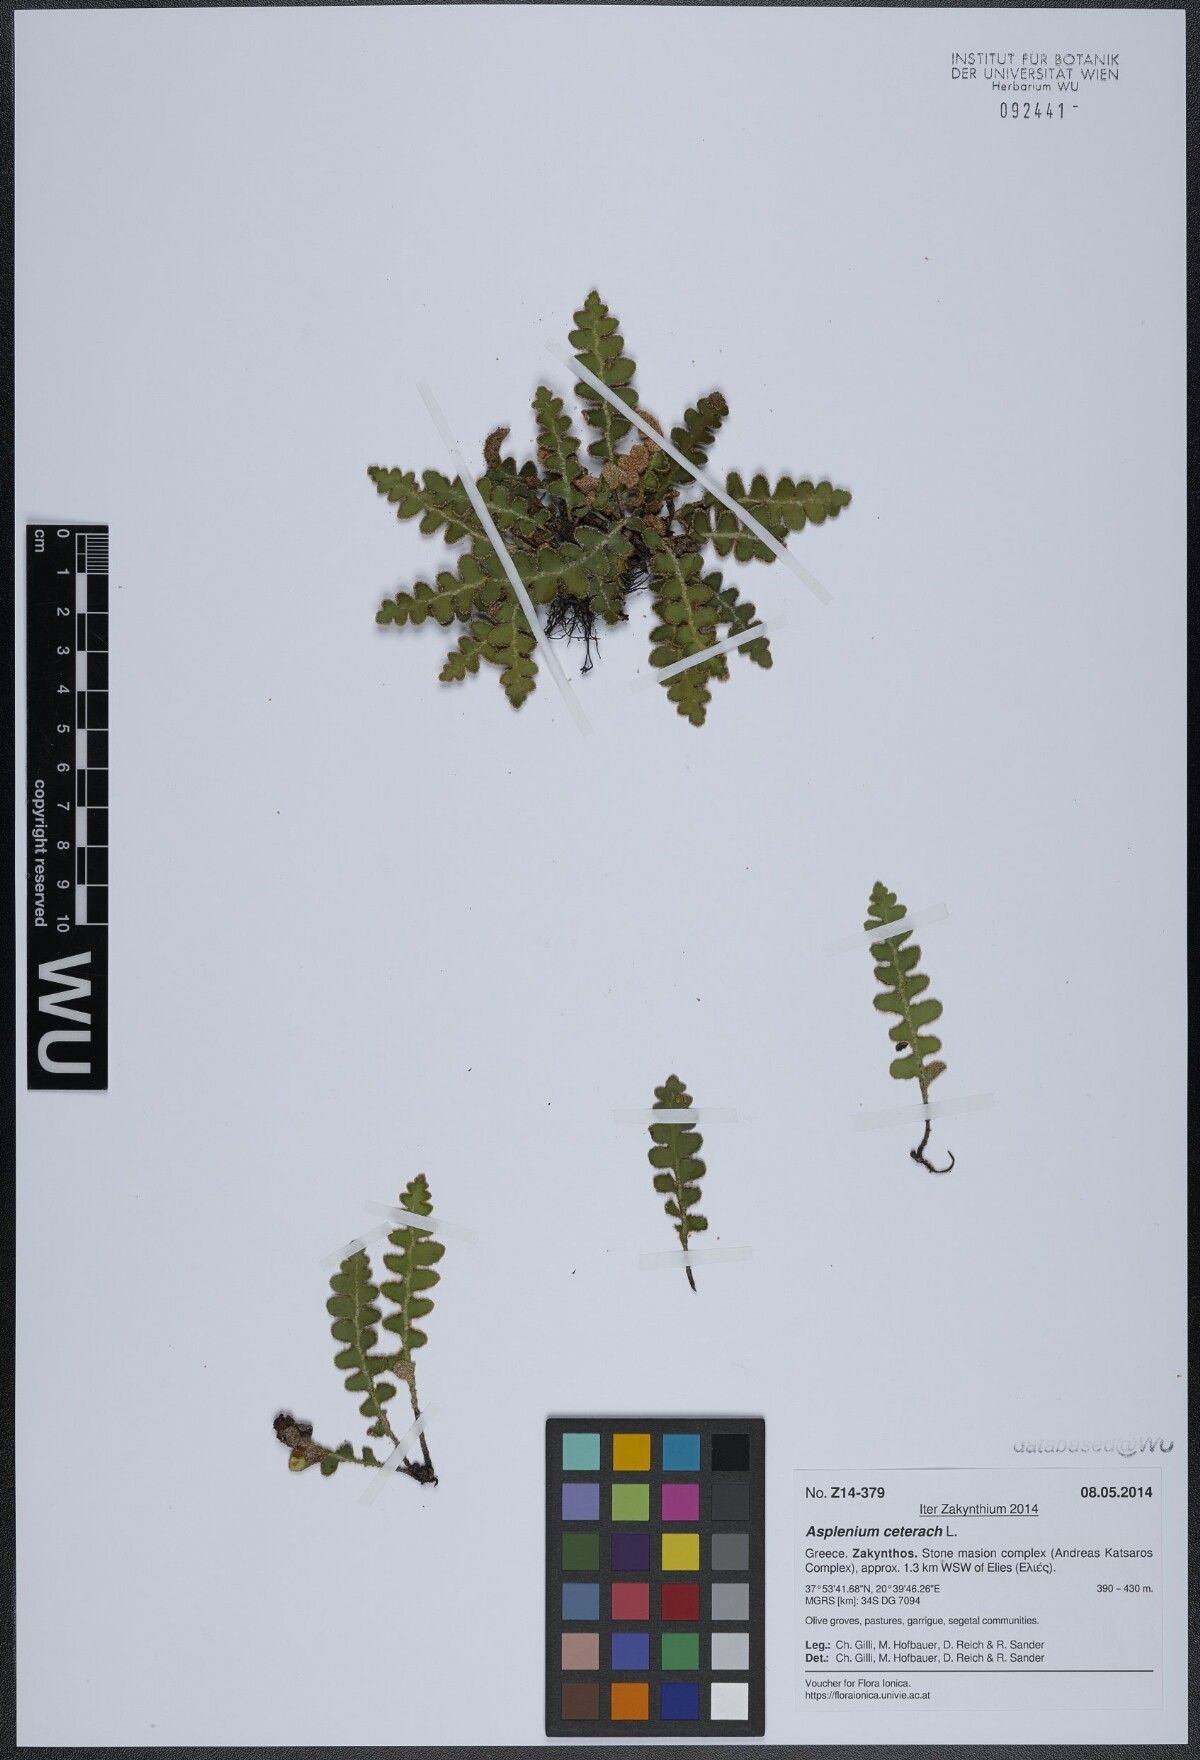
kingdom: Plantae
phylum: Tracheophyta
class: Polypodiopsida
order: Polypodiales
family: Aspleniaceae
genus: Asplenium
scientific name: Asplenium ceterach
